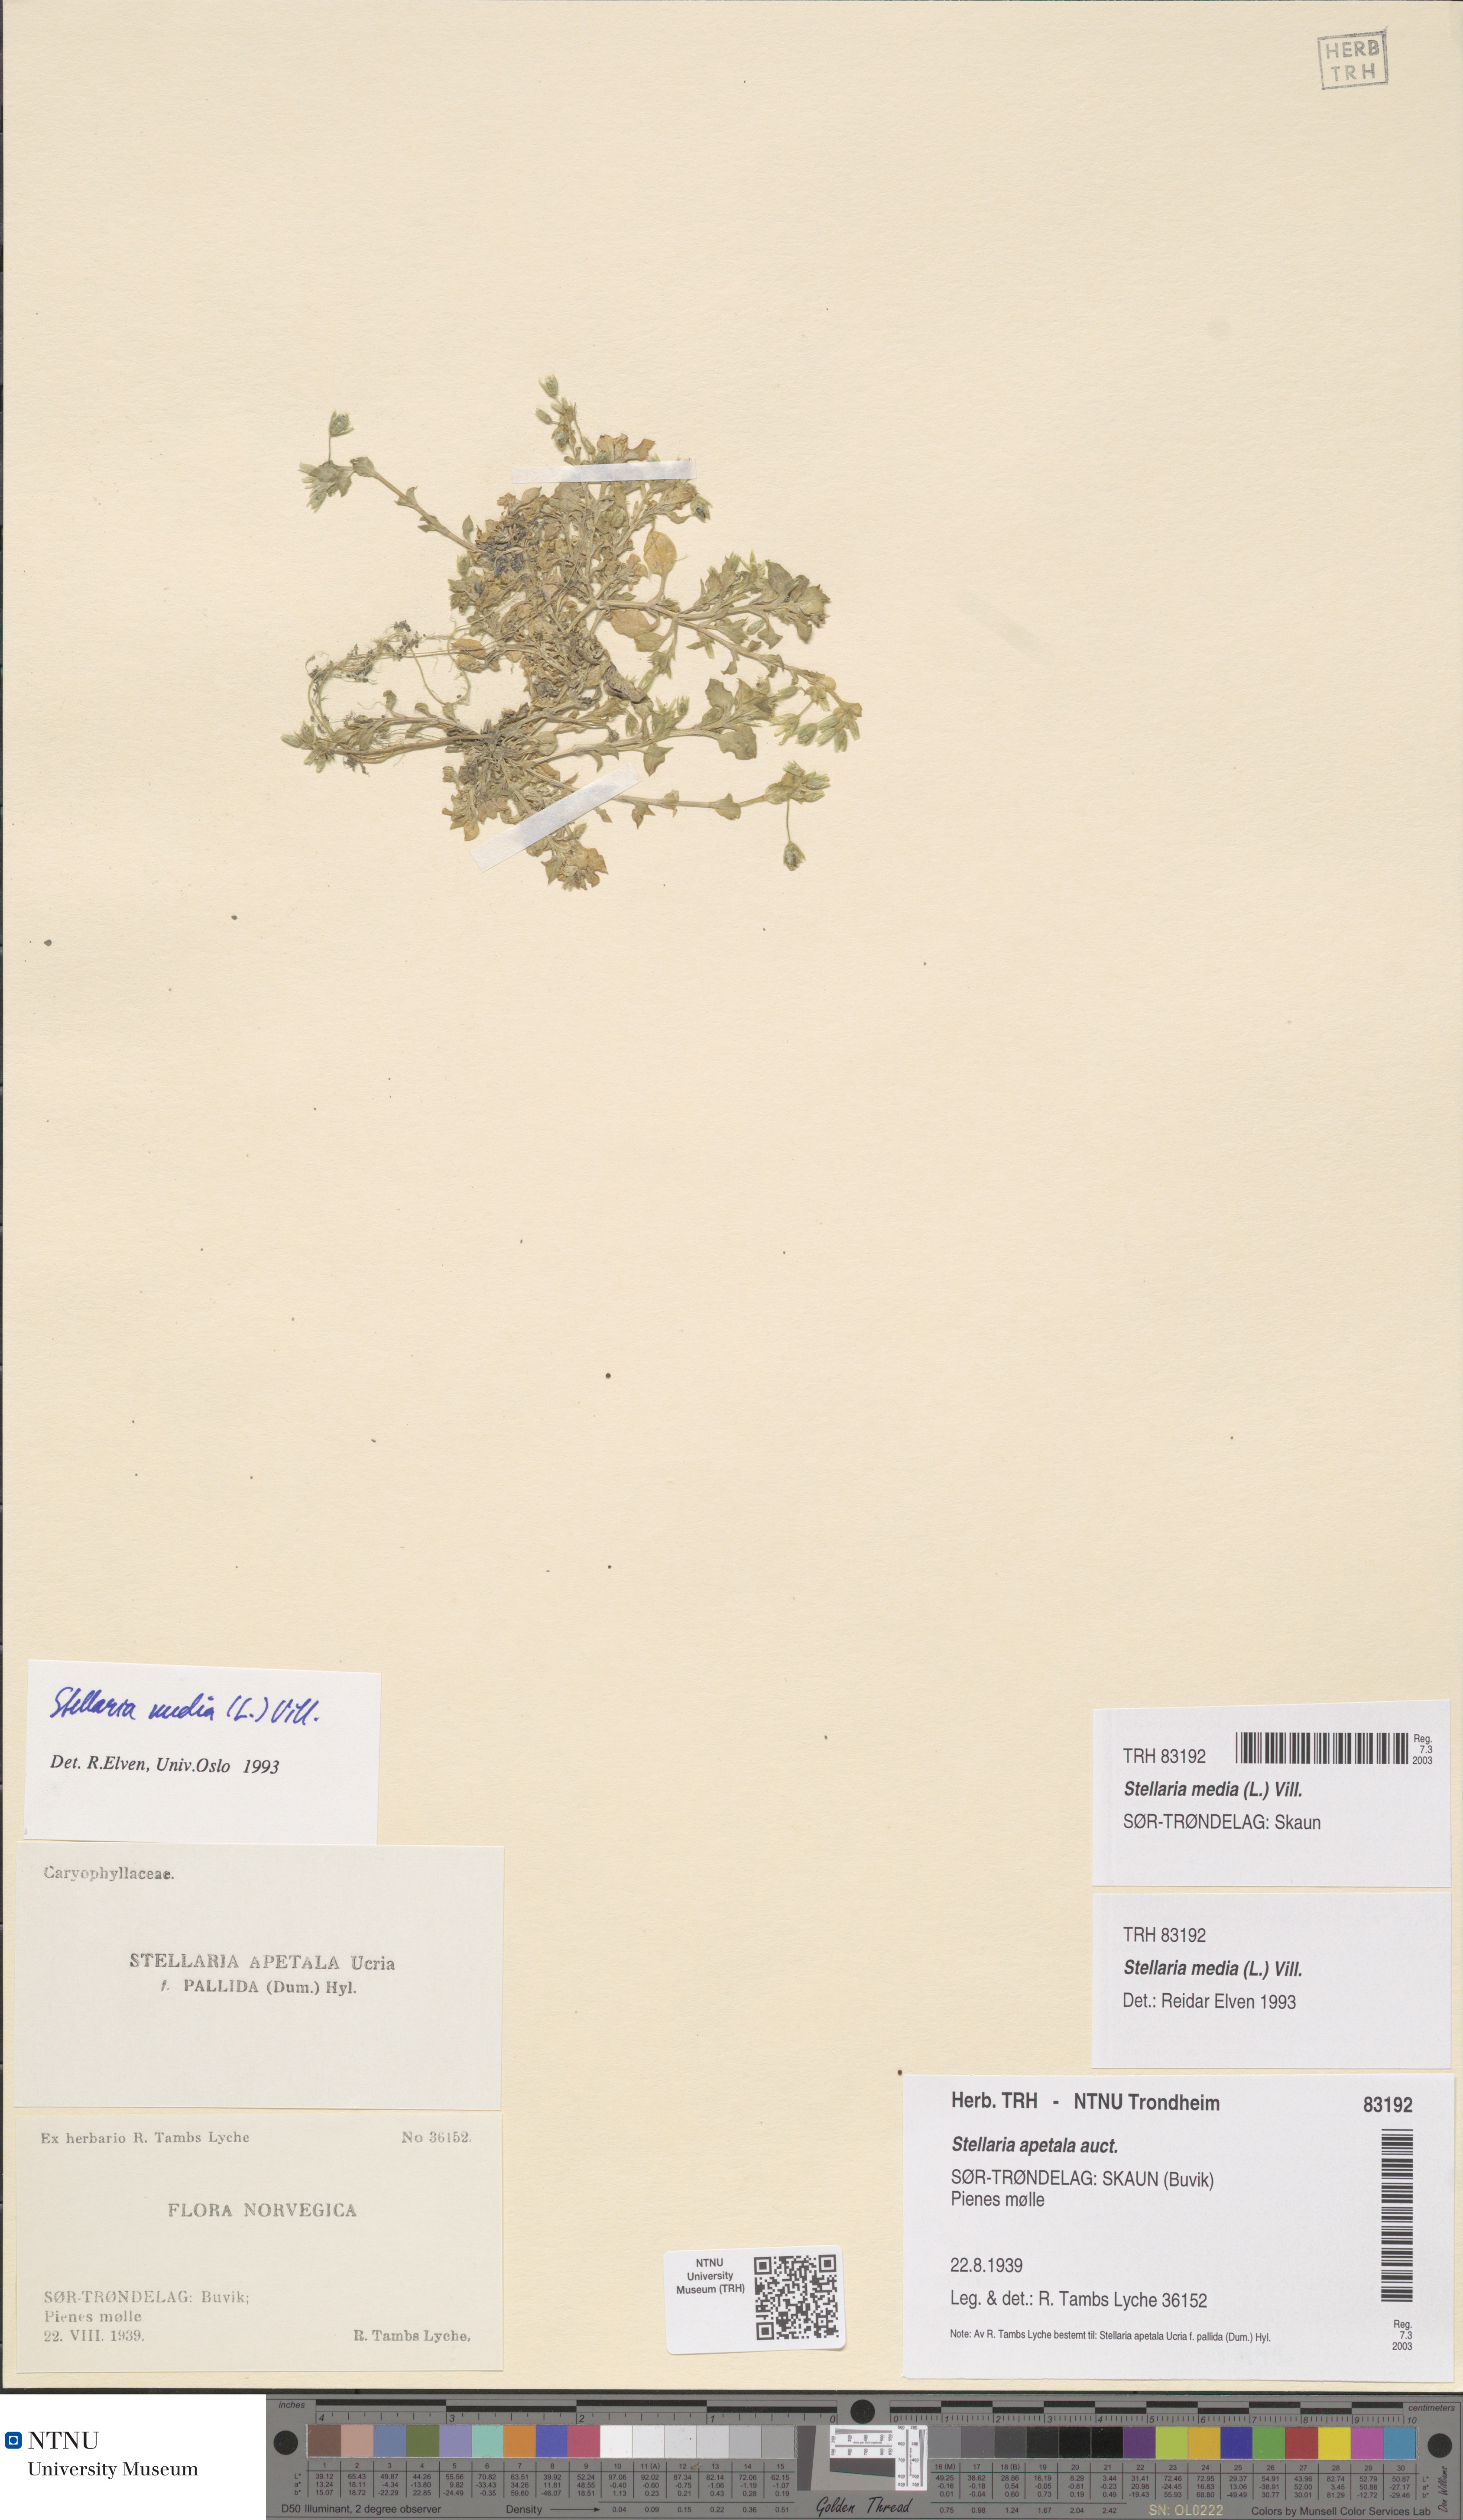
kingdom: Plantae
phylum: Tracheophyta
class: Magnoliopsida
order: Caryophyllales
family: Caryophyllaceae
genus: Stellaria
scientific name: Stellaria media
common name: Common chickweed
